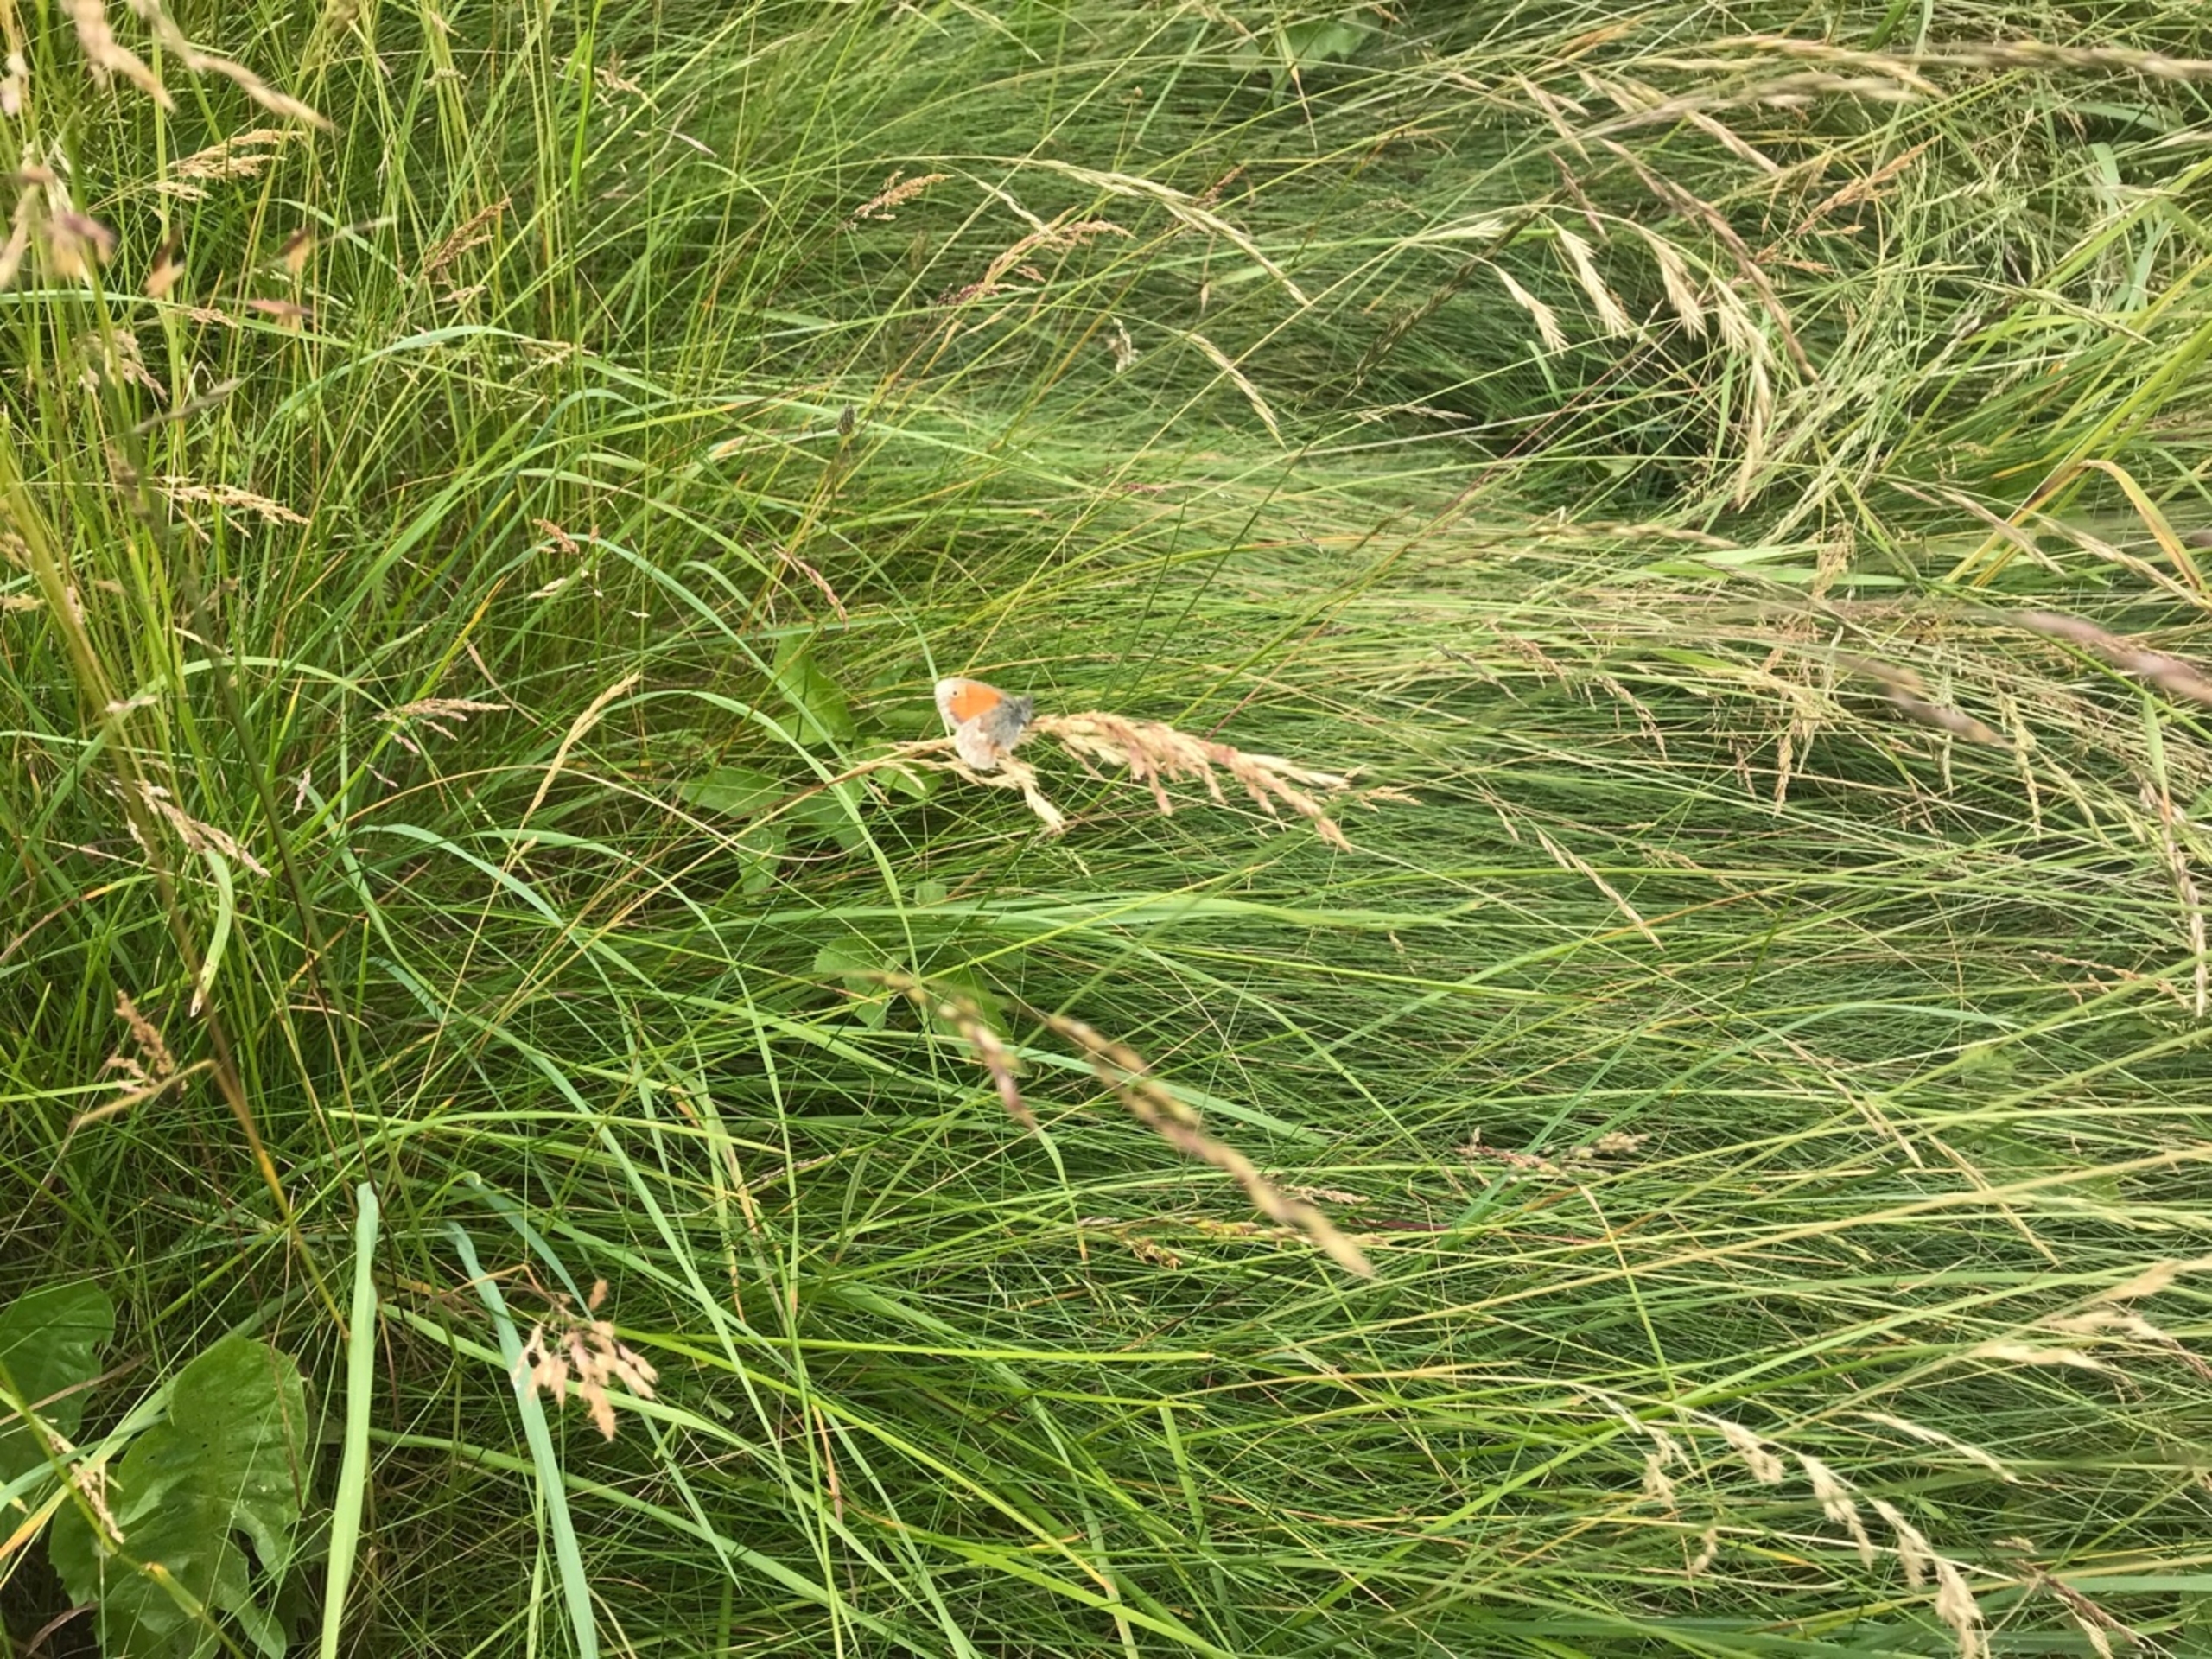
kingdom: Animalia
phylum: Arthropoda
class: Insecta
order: Lepidoptera
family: Nymphalidae
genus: Coenonympha
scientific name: Coenonympha pamphilus
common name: Okkergul randøje
